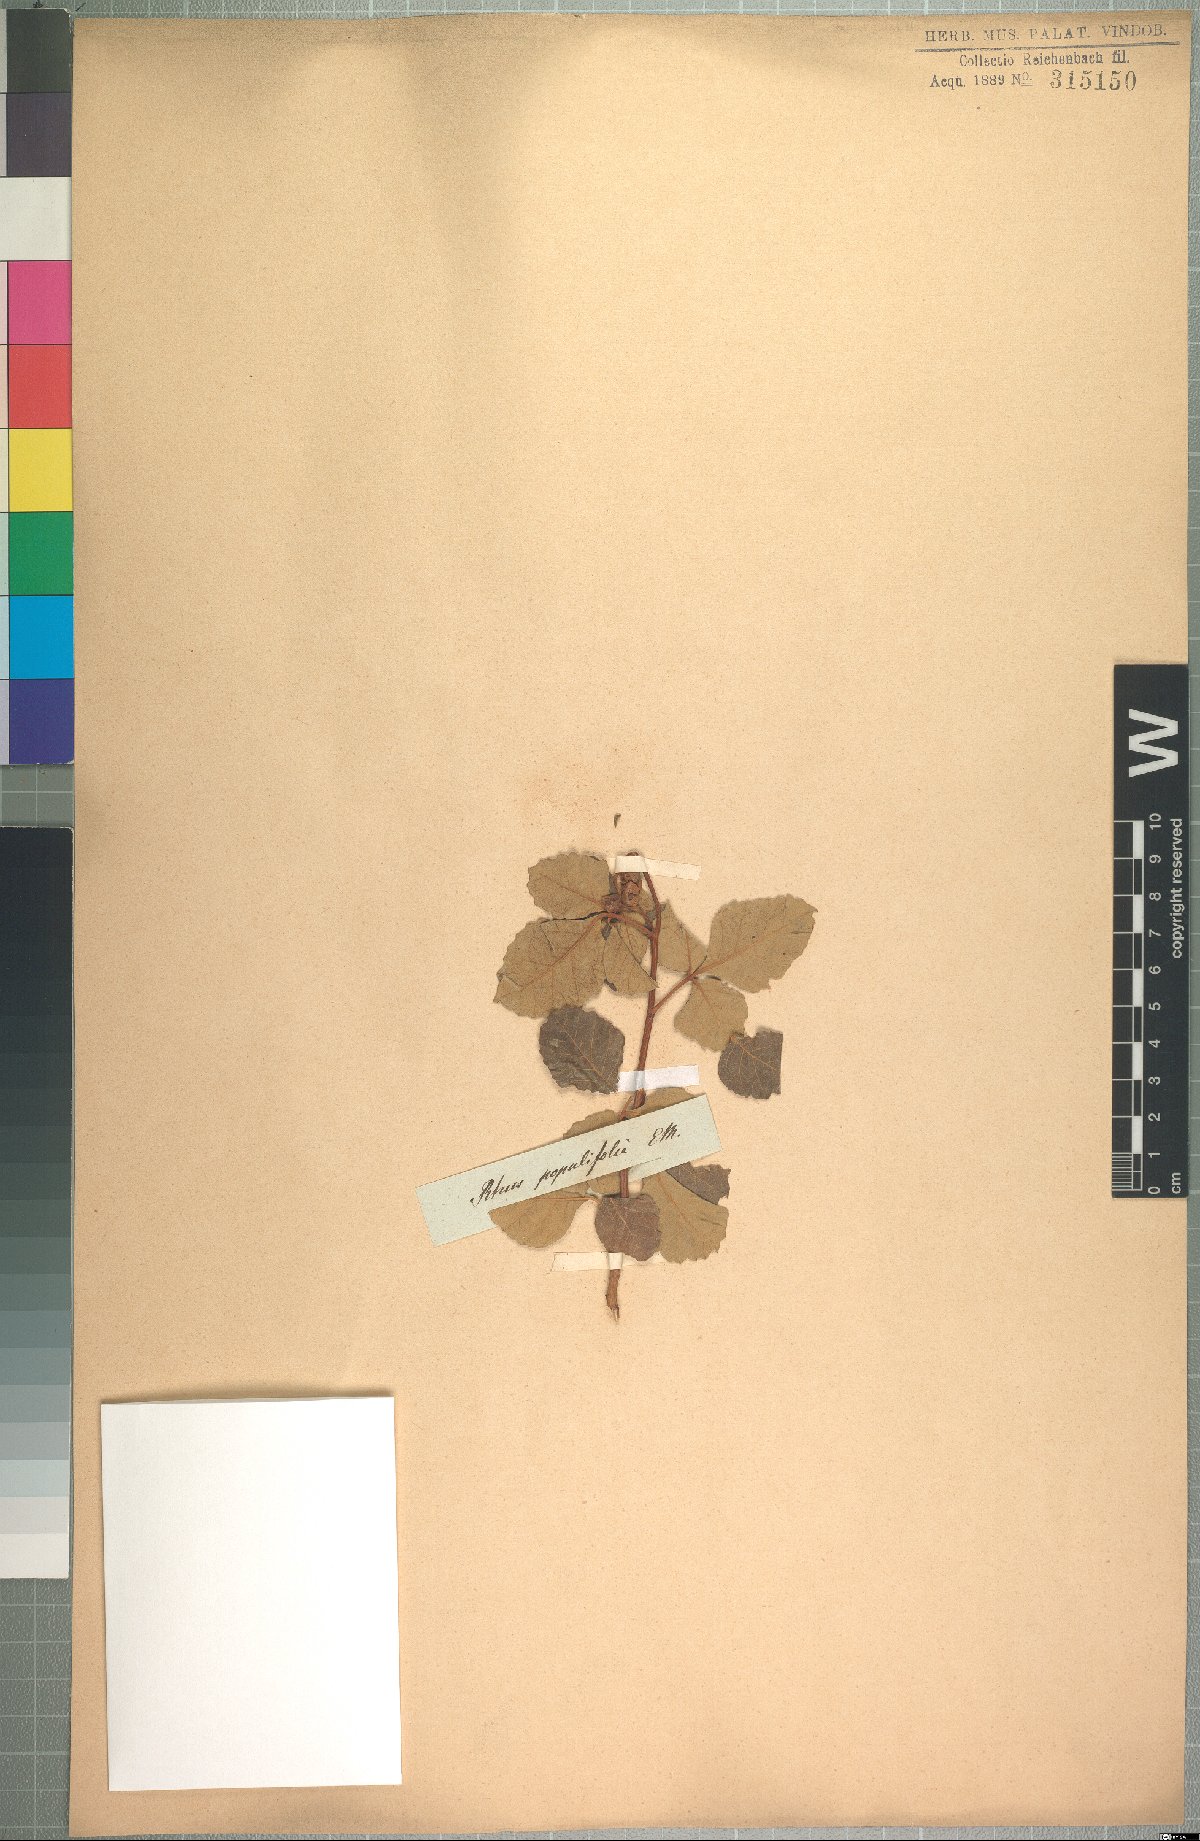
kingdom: Plantae
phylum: Tracheophyta
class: Magnoliopsida
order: Sapindales
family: Anacardiaceae
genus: Searsia
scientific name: Searsia populifolia
